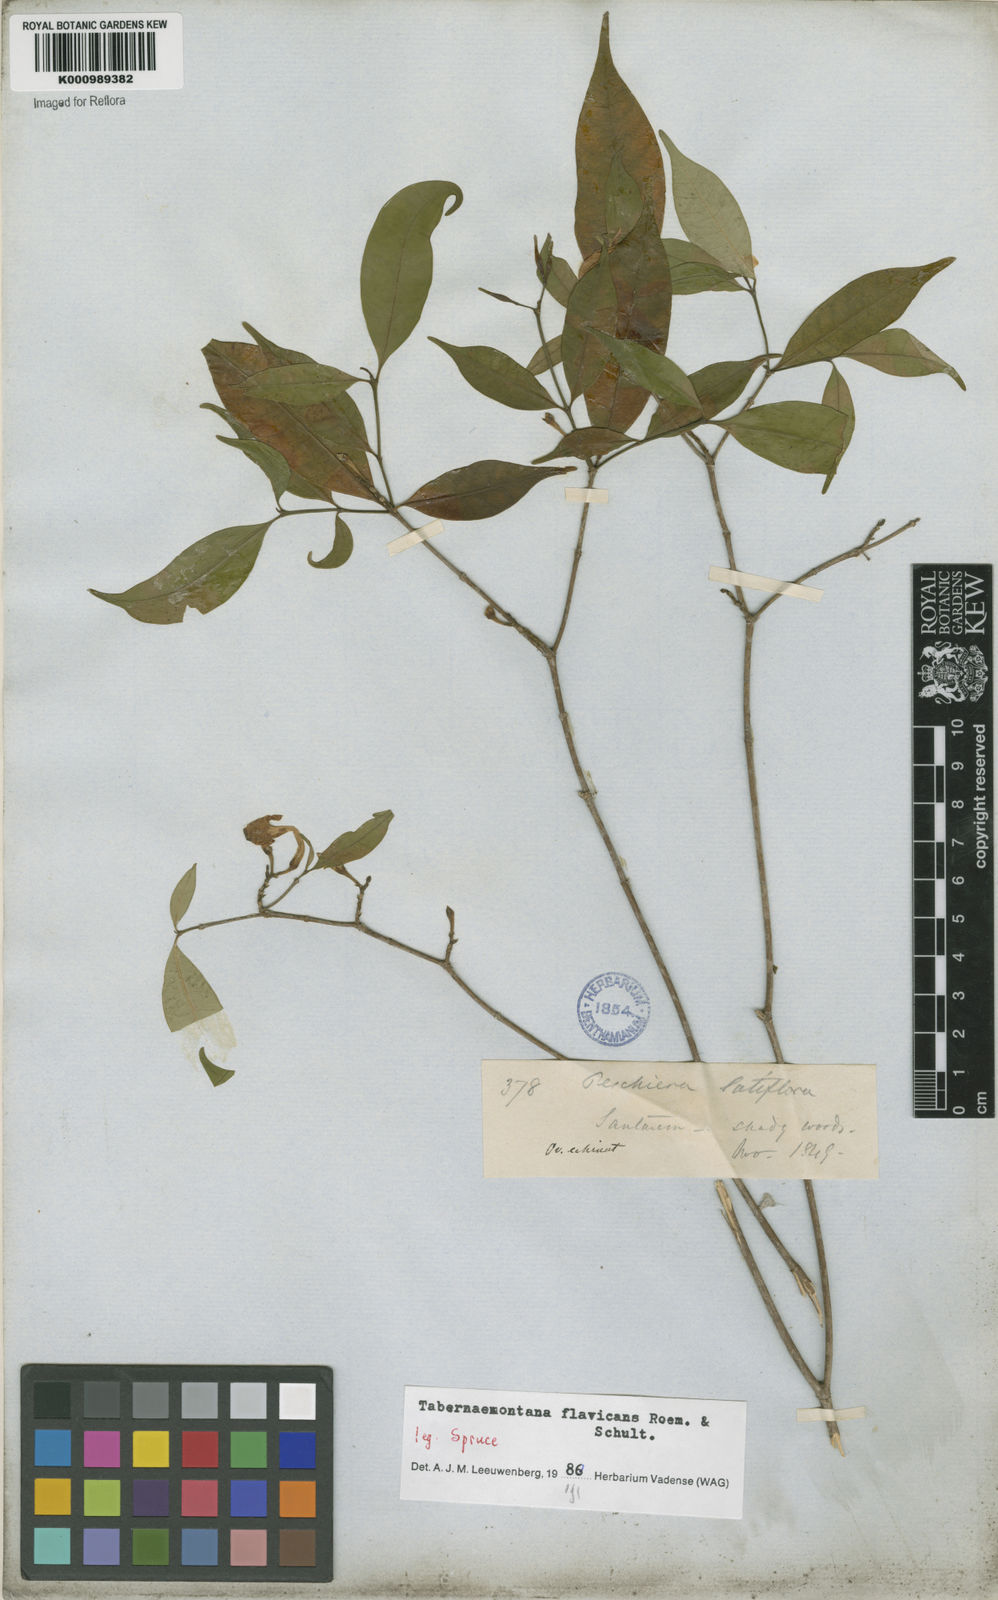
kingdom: Plantae
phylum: Tracheophyta
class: Magnoliopsida
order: Gentianales
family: Apocynaceae
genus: Tabernaemontana
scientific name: Tabernaemontana flavicans
